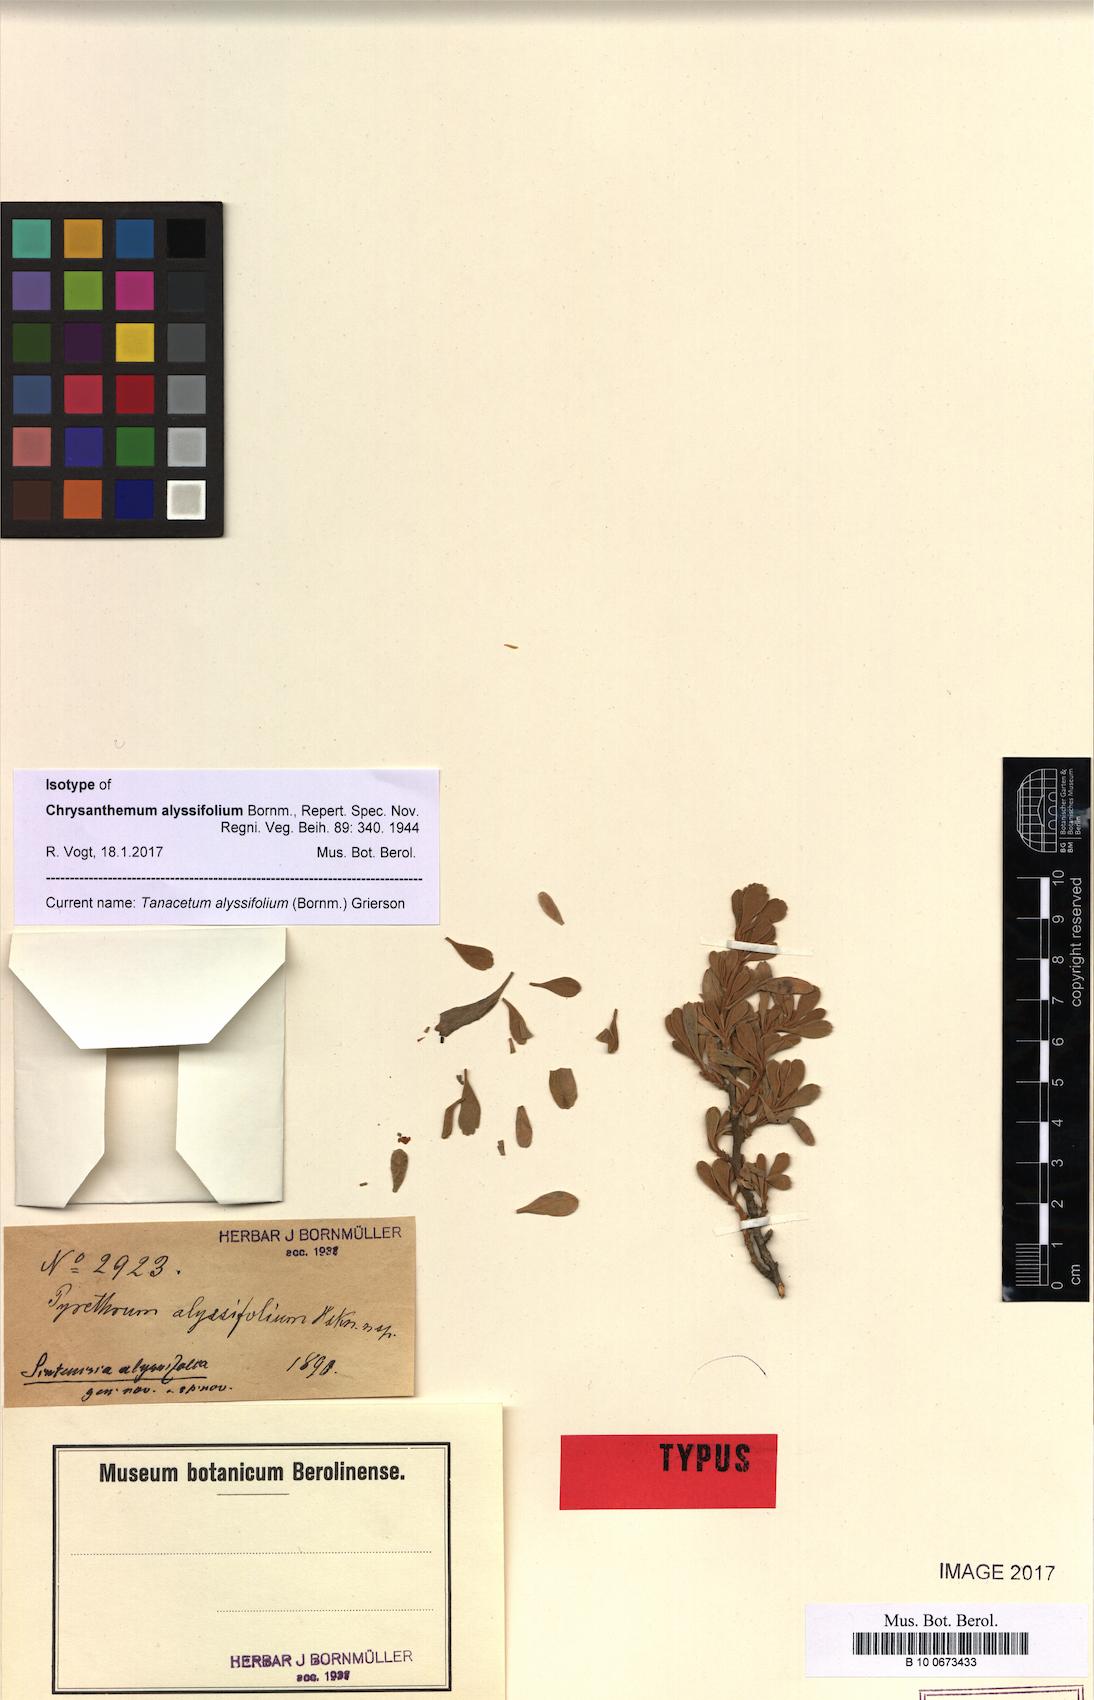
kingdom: Plantae
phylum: Tracheophyta
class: Magnoliopsida
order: Asterales
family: Asteraceae
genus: Tanacetum
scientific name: Tanacetum alyssifolium
